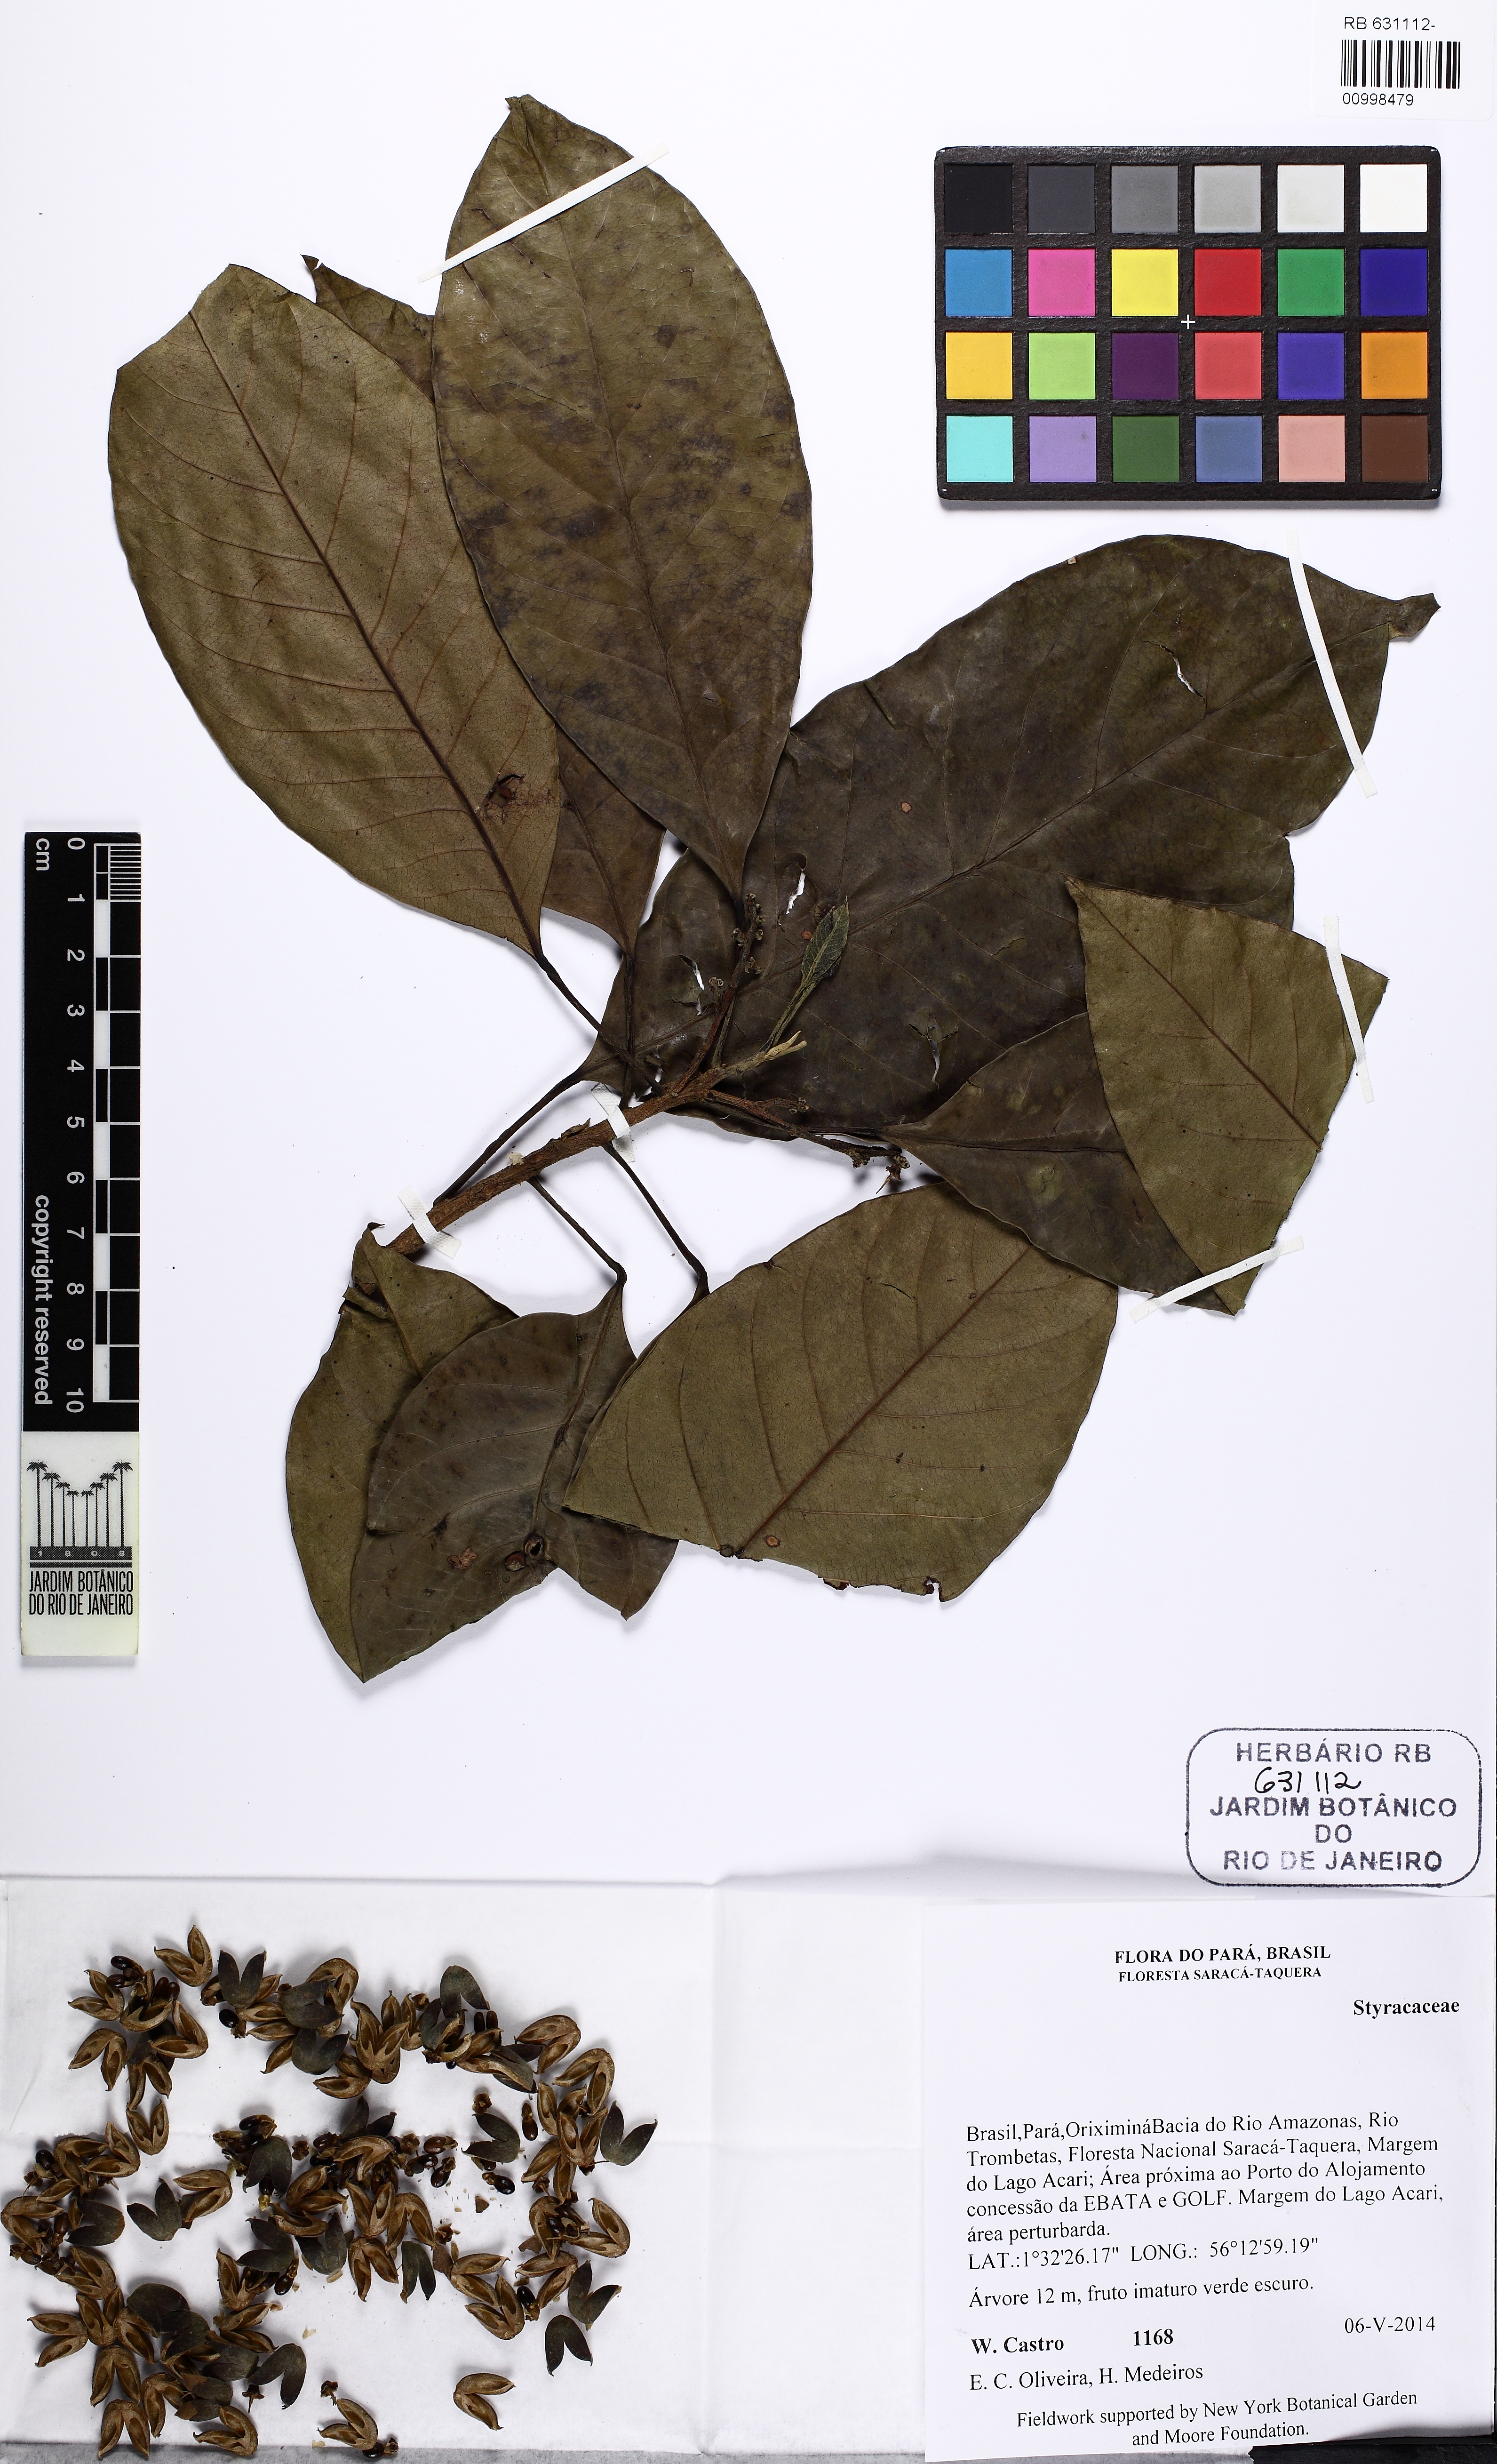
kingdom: Plantae
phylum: Tracheophyta
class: Magnoliopsida
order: Ericales
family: Styracaceae
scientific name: Styracaceae
